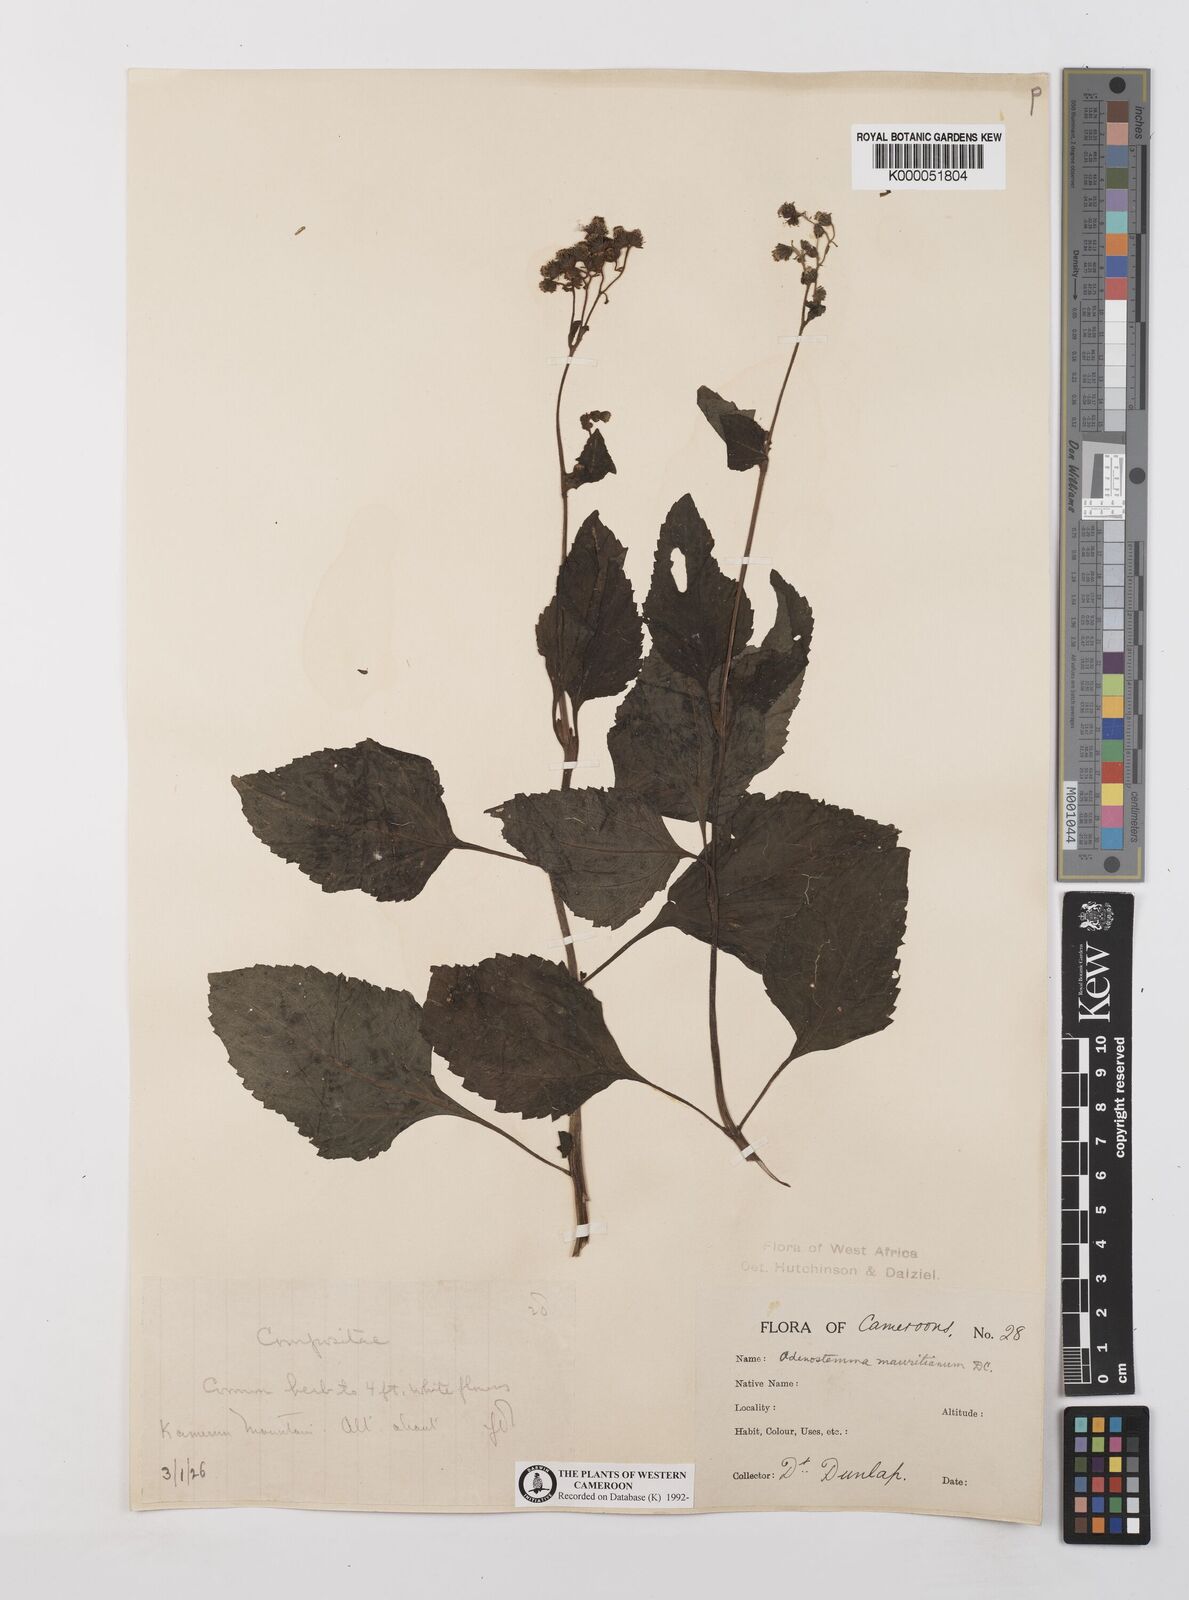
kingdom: Plantae
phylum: Tracheophyta
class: Magnoliopsida
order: Asterales
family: Asteraceae
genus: Adenostemma
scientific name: Adenostemma mauritianum
